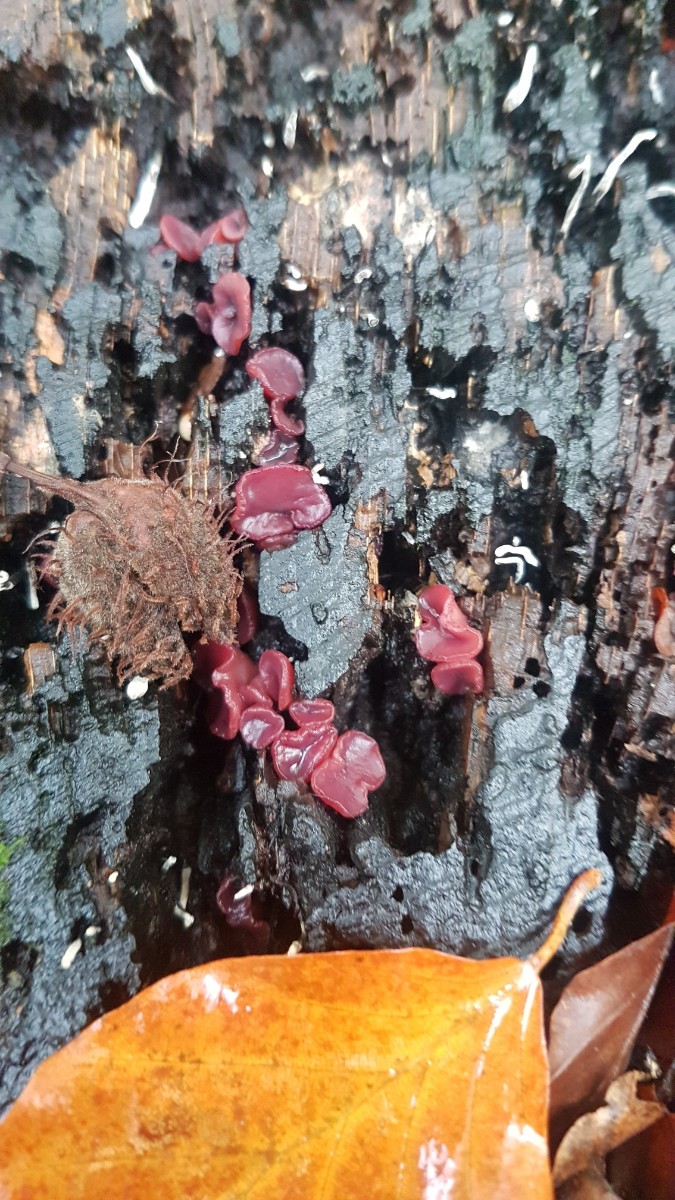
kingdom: Fungi
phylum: Ascomycota
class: Leotiomycetes
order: Helotiales
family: Gelatinodiscaceae
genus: Ascocoryne
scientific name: Ascocoryne cylichnium
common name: stor sejskive
